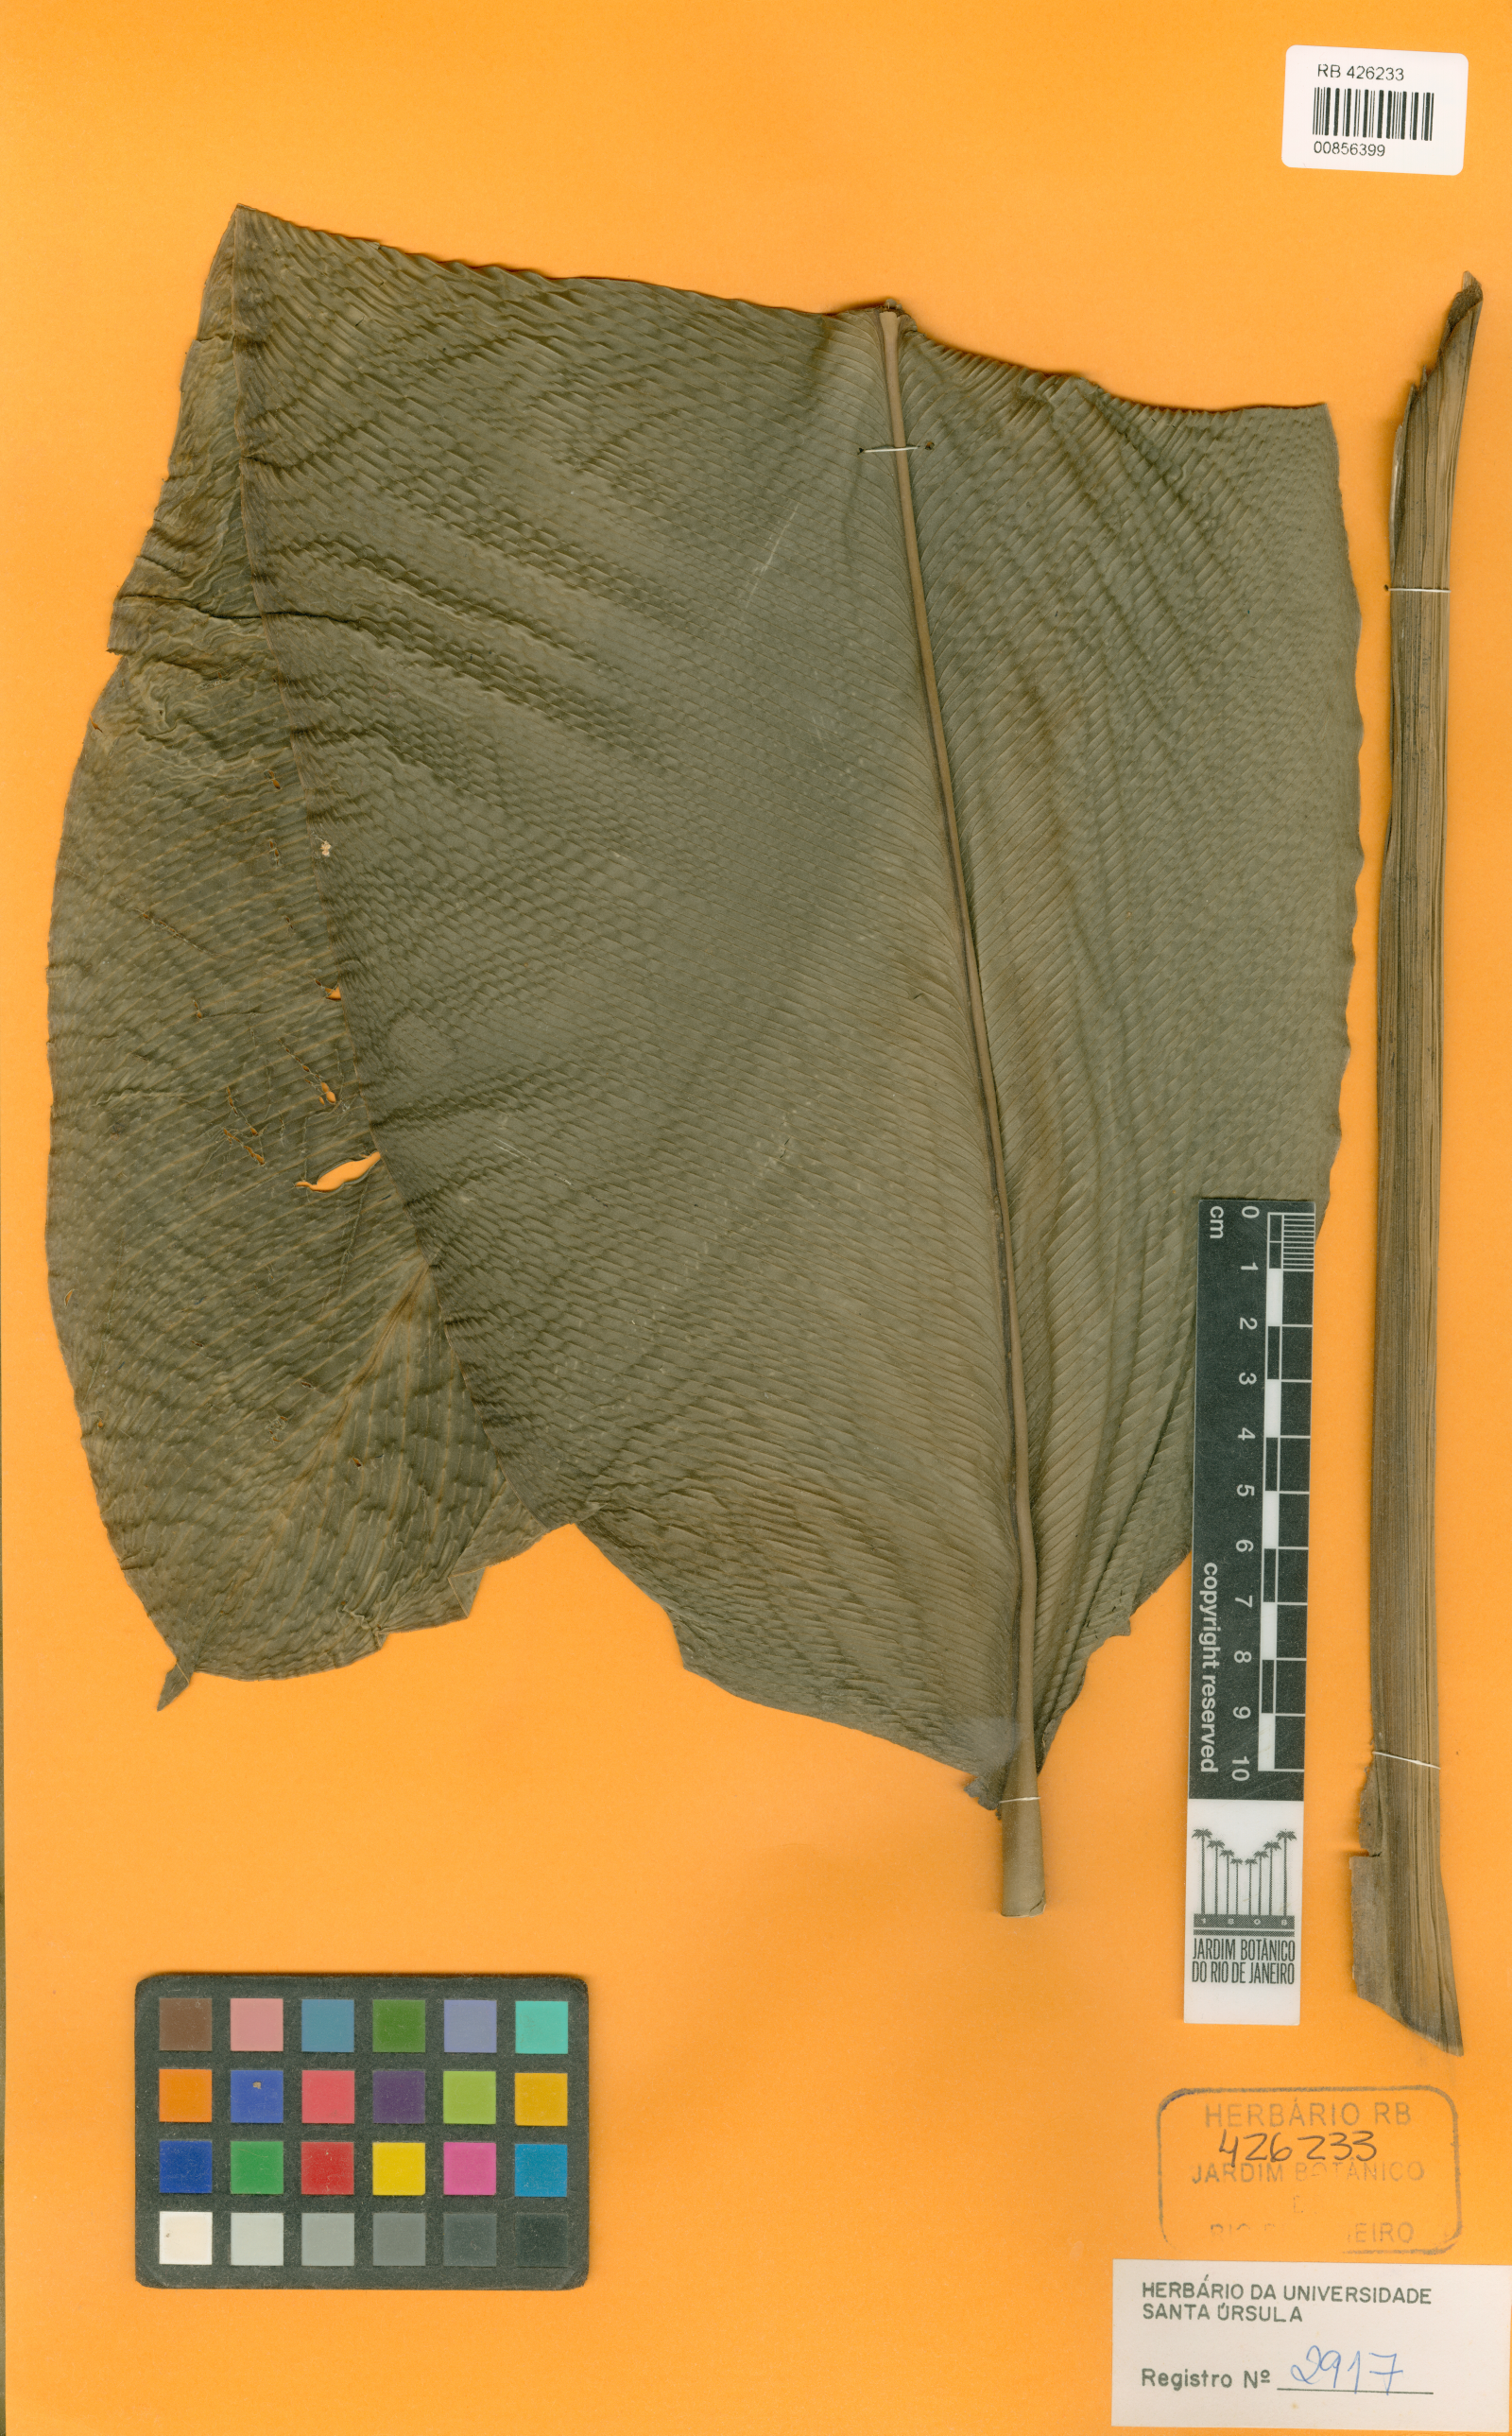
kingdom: Plantae
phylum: Tracheophyta
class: Liliopsida
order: Zingiberales
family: Marantaceae
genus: Goeppertia
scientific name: Goeppertia reginae
